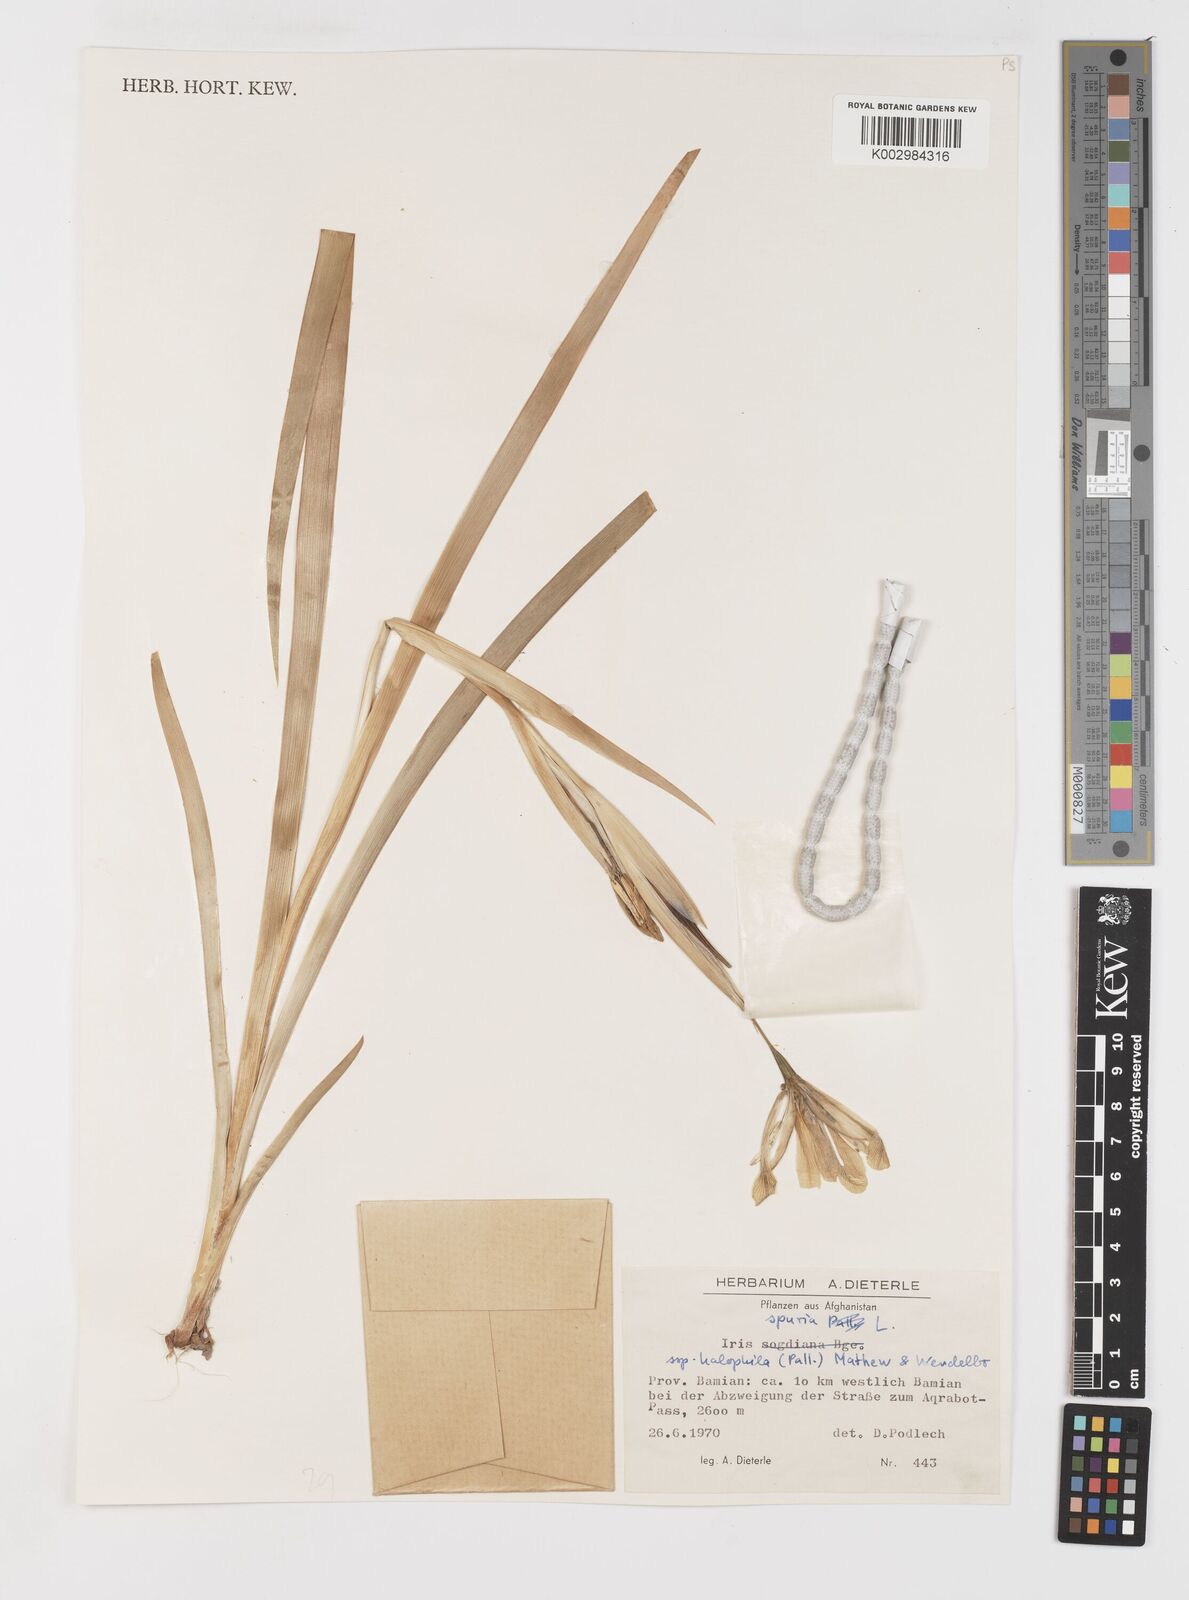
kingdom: Plantae
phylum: Tracheophyta
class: Liliopsida
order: Asparagales
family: Iridaceae
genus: Iris
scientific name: Iris halophila
